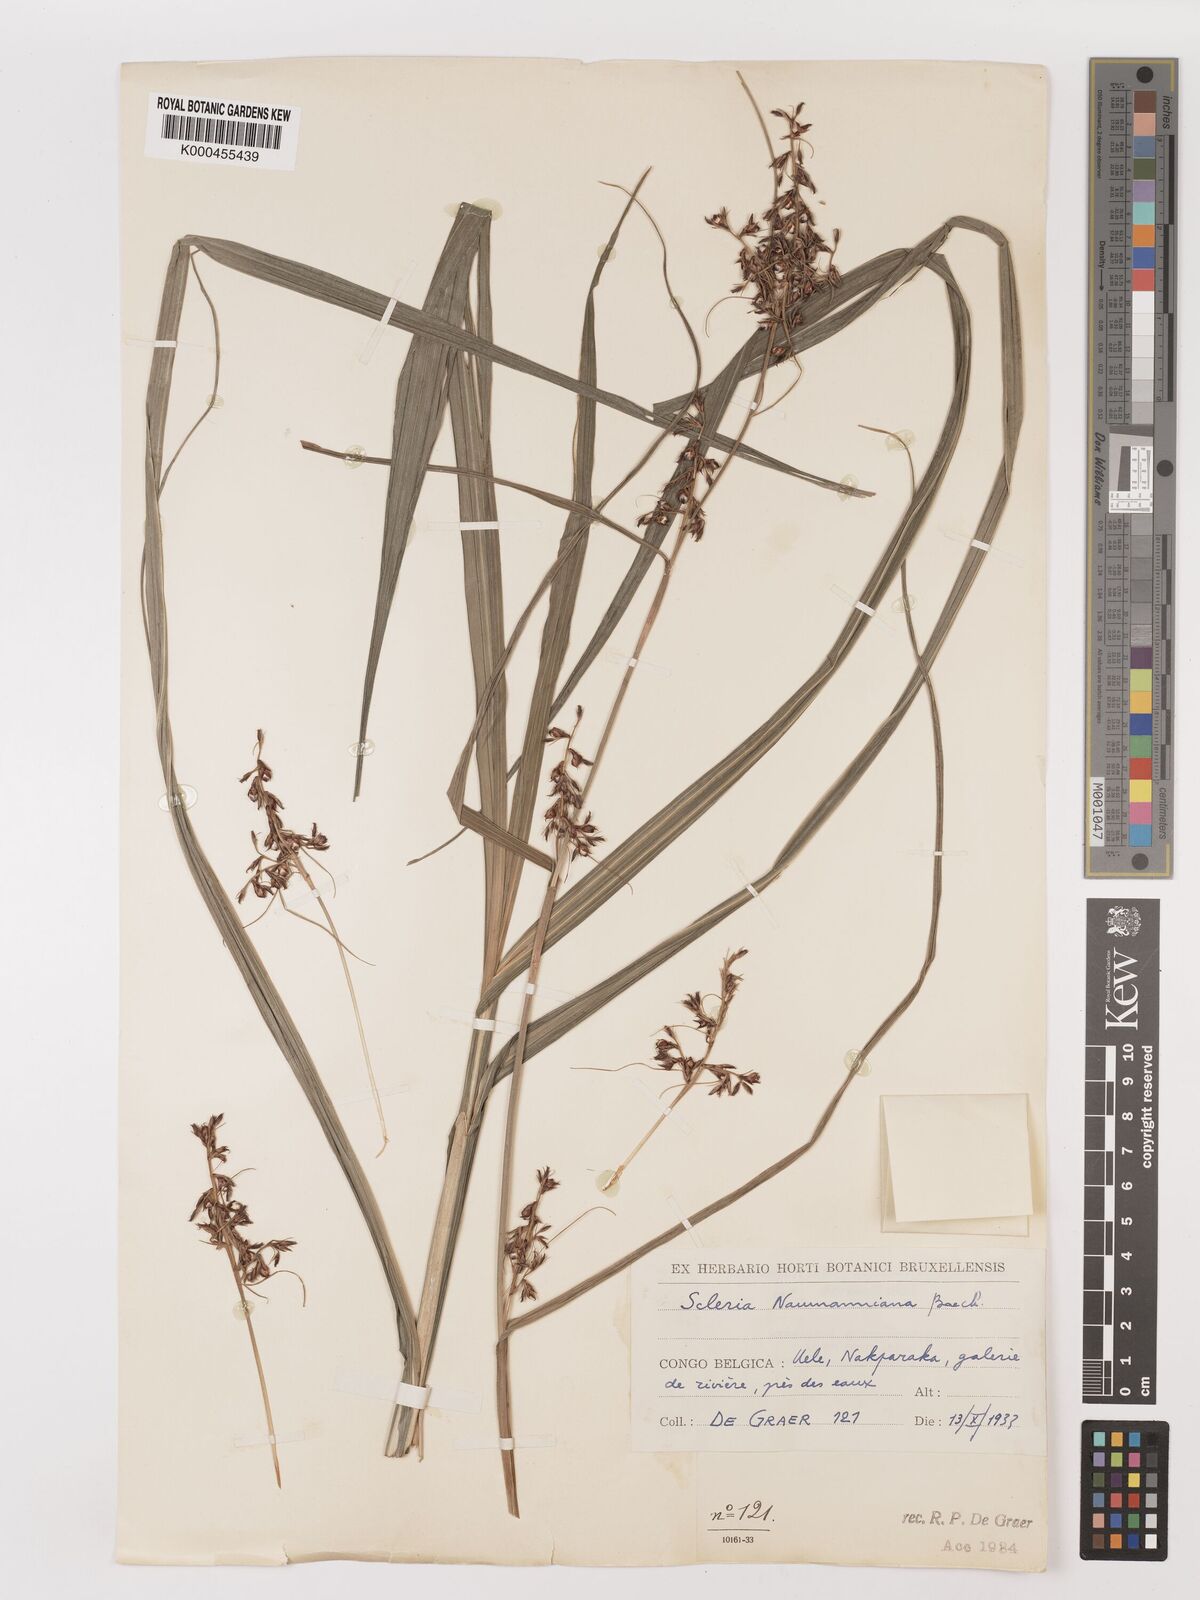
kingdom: Plantae
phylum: Tracheophyta
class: Liliopsida
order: Poales
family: Cyperaceae
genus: Scleria
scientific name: Scleria iostephana
